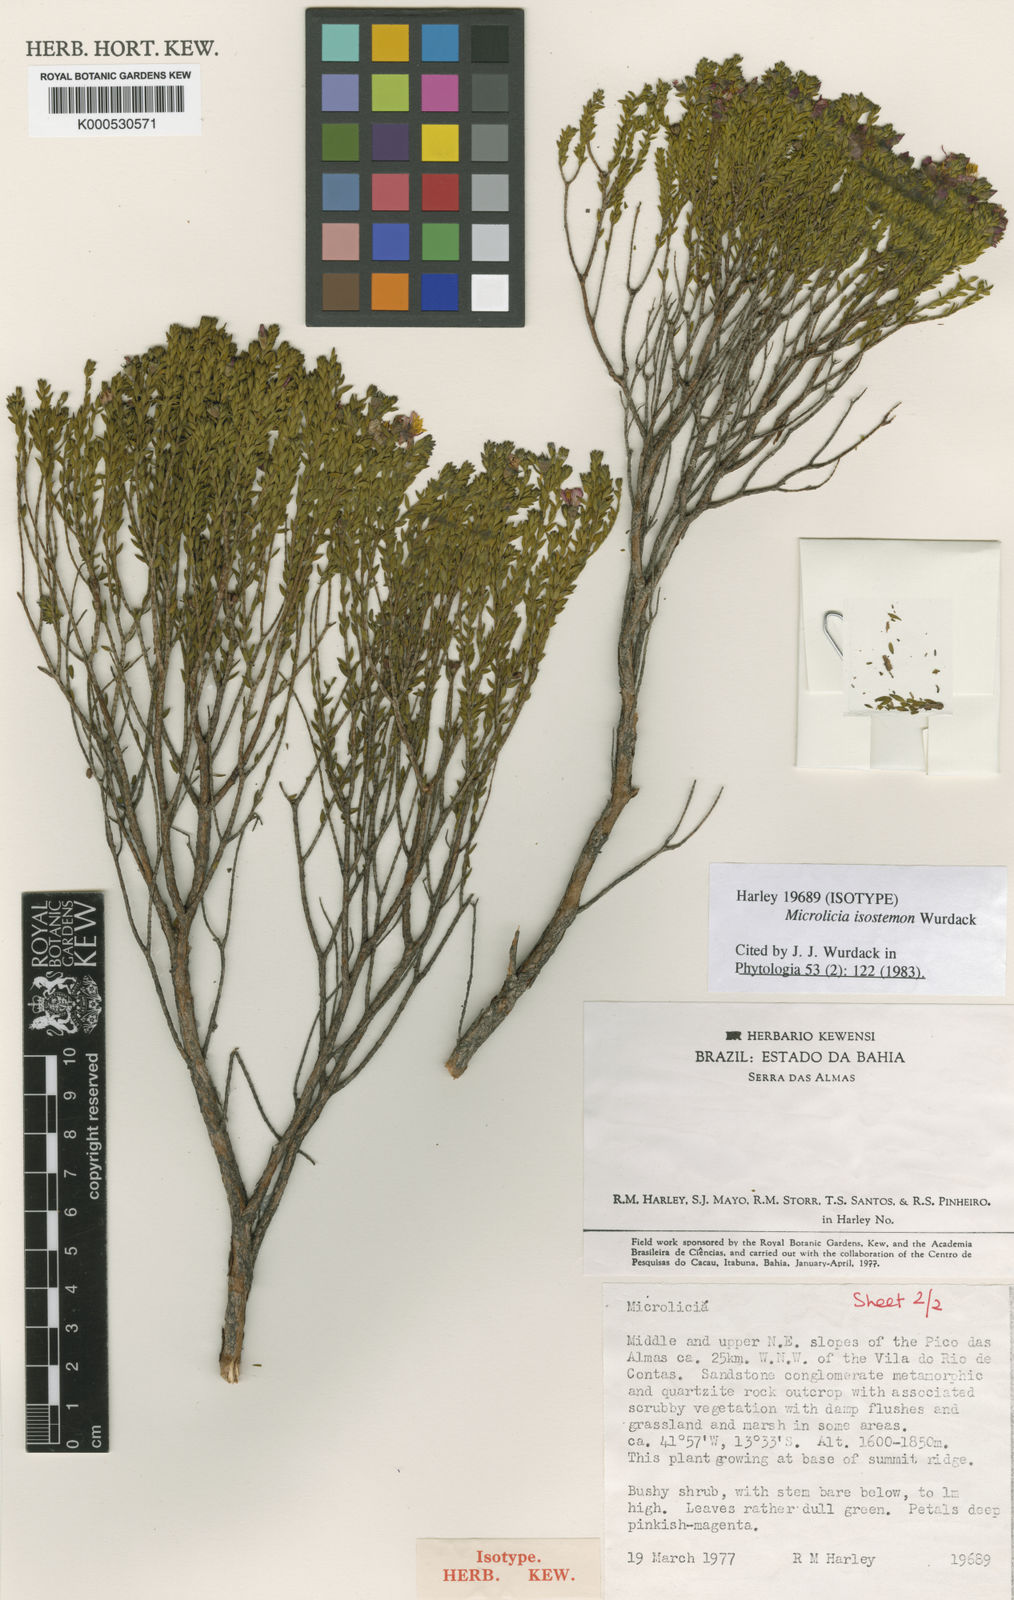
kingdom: Plantae
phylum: Tracheophyta
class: Magnoliopsida
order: Myrtales
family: Melastomataceae
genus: Microlicia
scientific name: Microlicia isostemon
